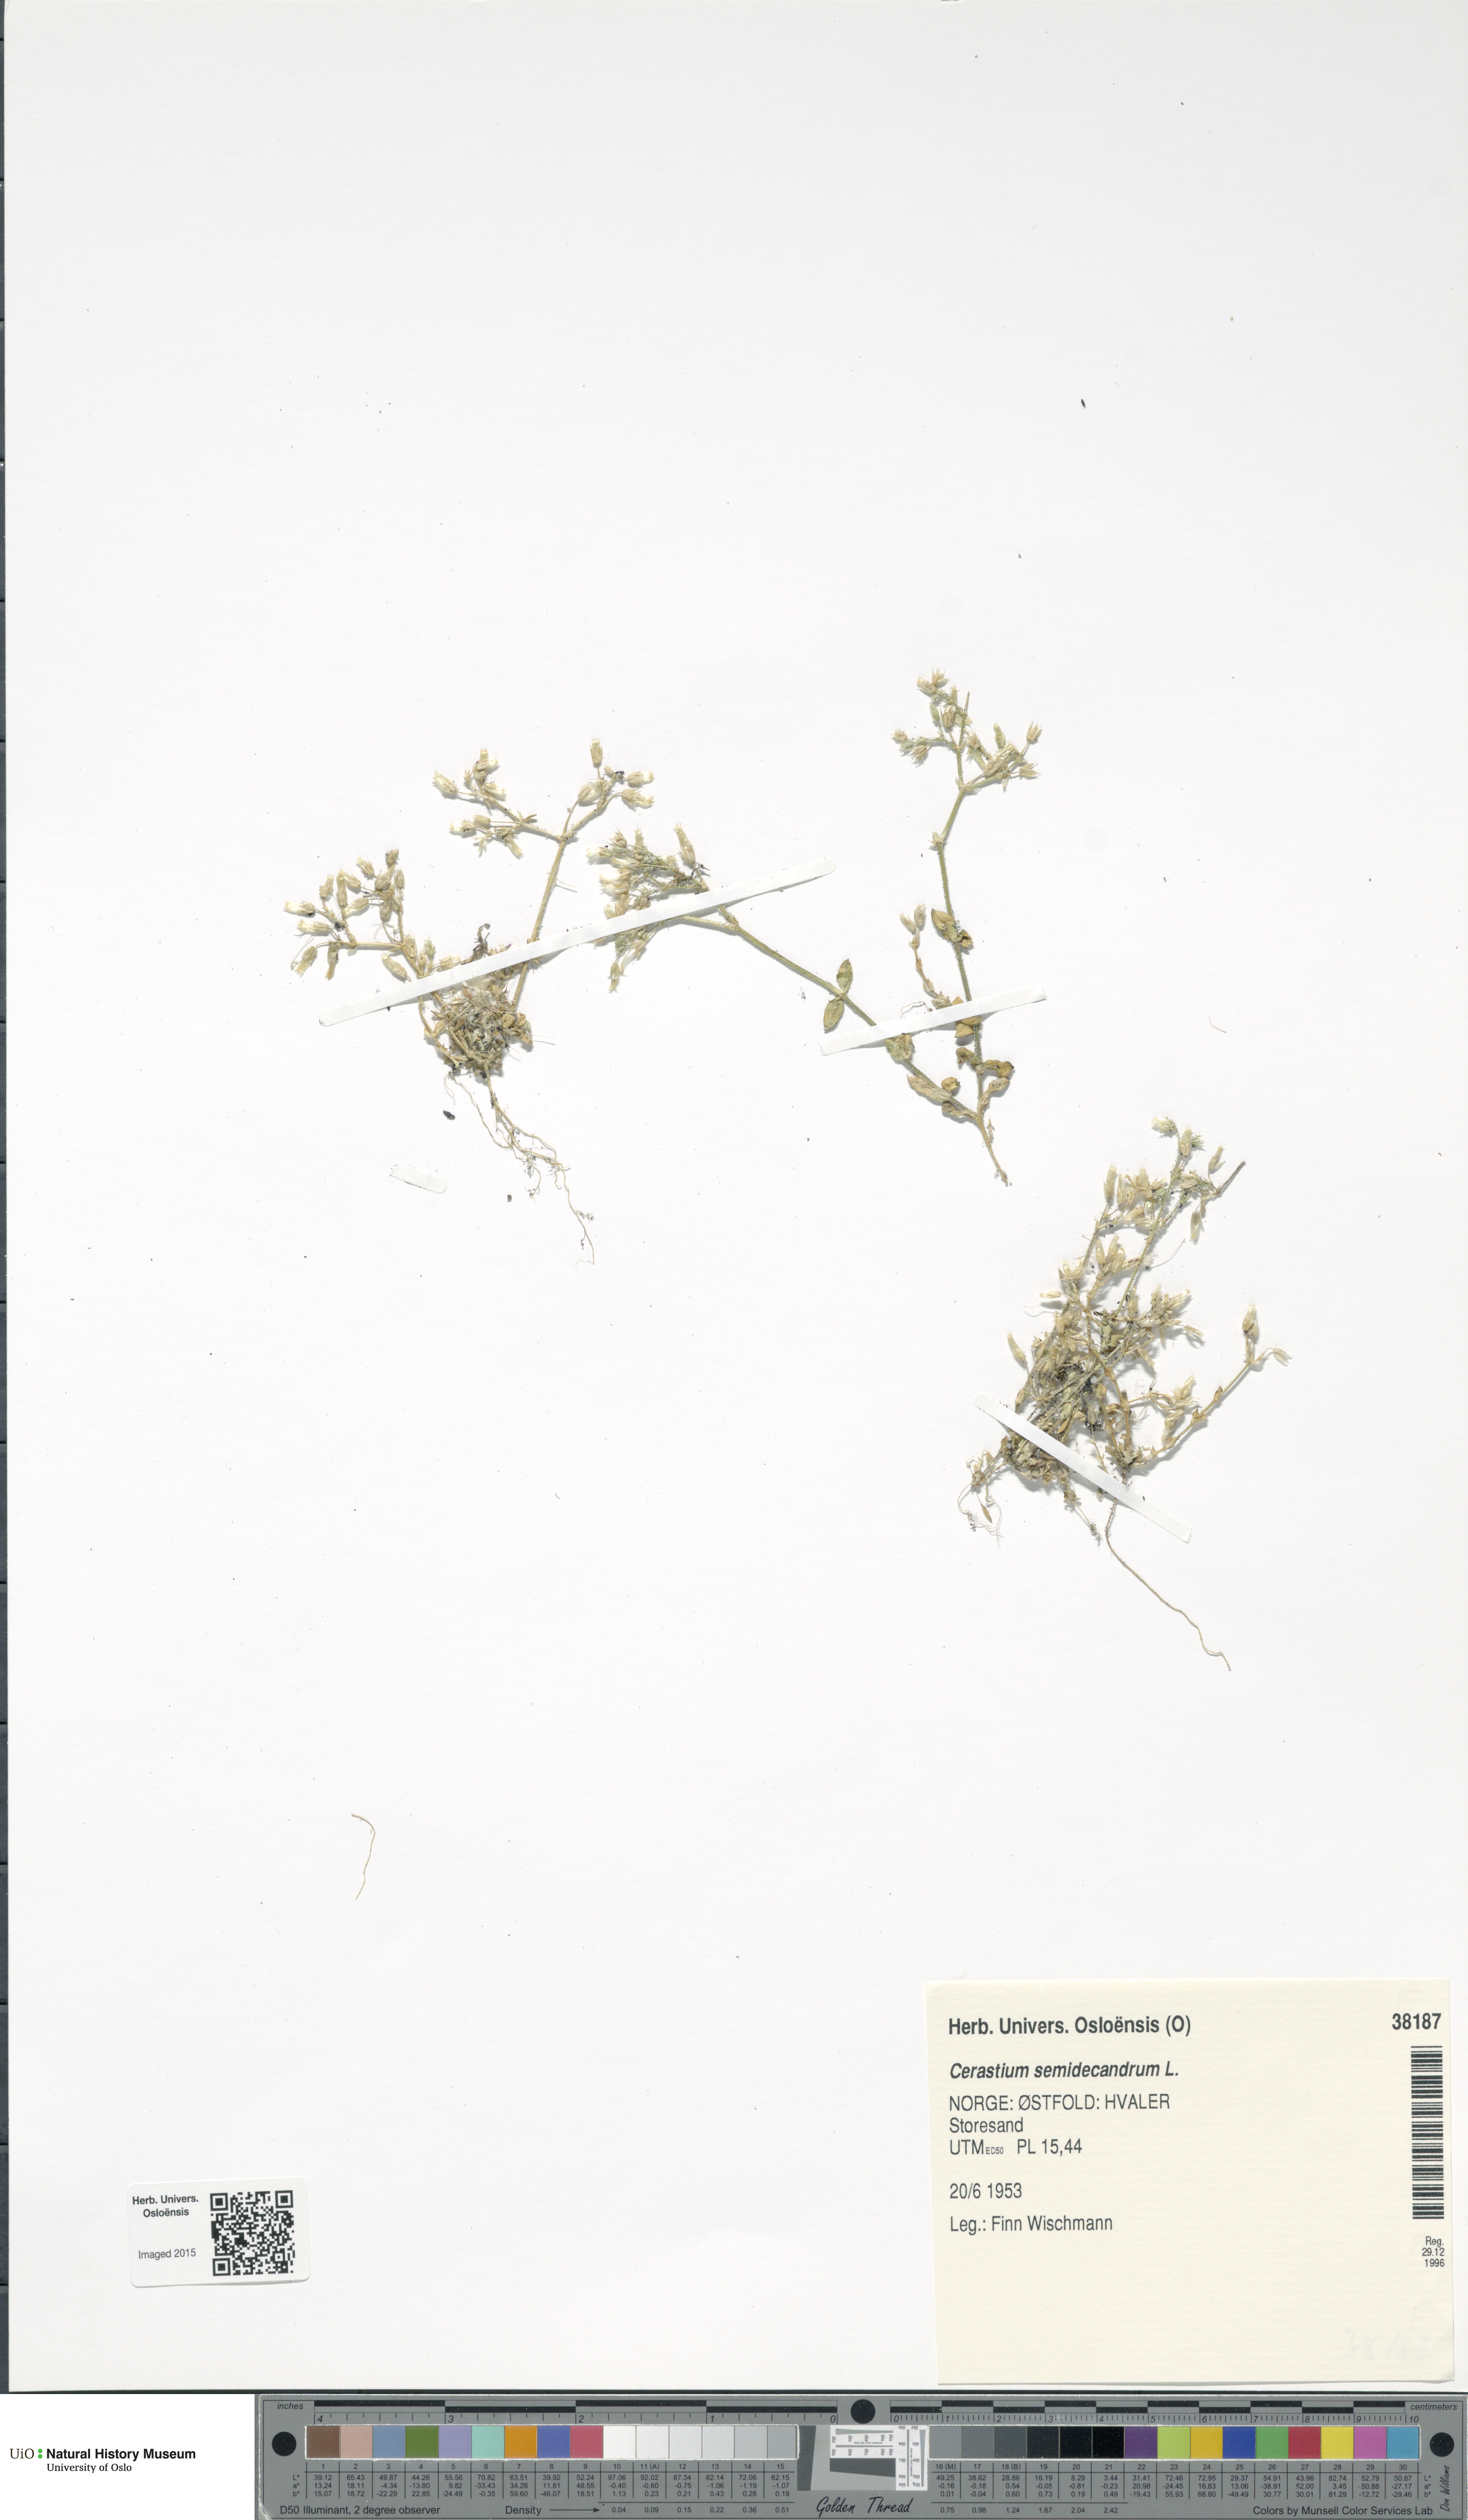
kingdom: Plantae
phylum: Tracheophyta
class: Magnoliopsida
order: Caryophyllales
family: Caryophyllaceae
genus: Cerastium
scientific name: Cerastium semidecandrum
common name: Little mouse-ear
